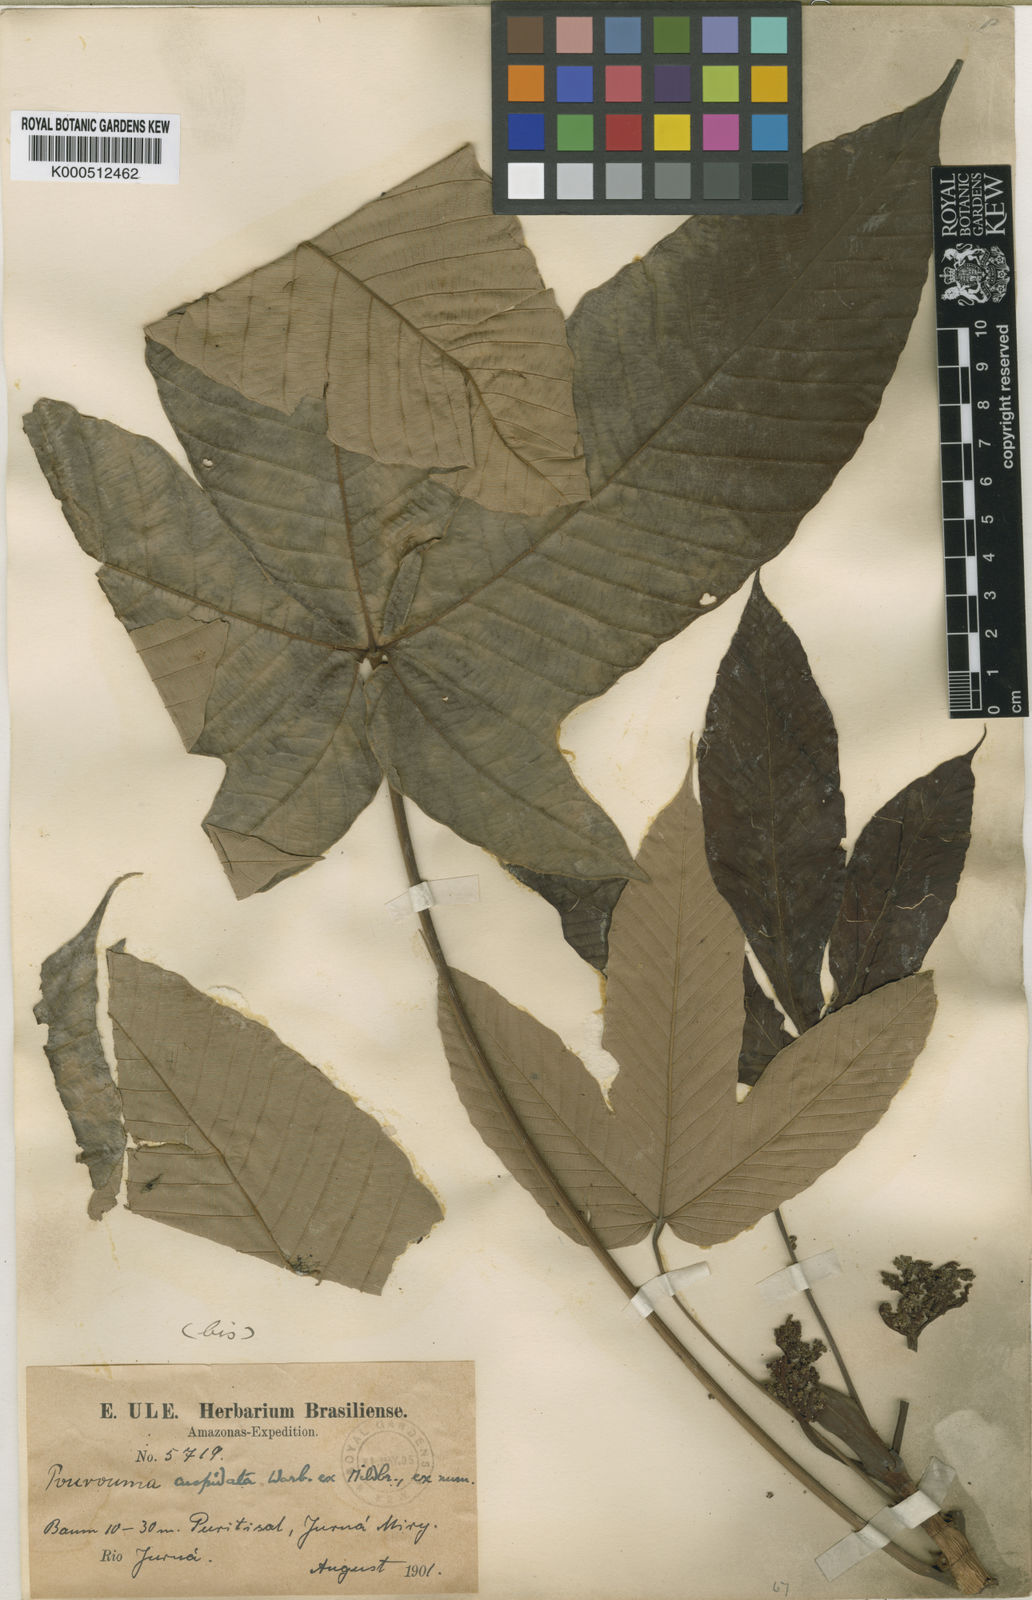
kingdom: Plantae
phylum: Tracheophyta
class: Magnoliopsida
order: Rosales
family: Urticaceae
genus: Pourouma
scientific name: Pourouma cuspidata
